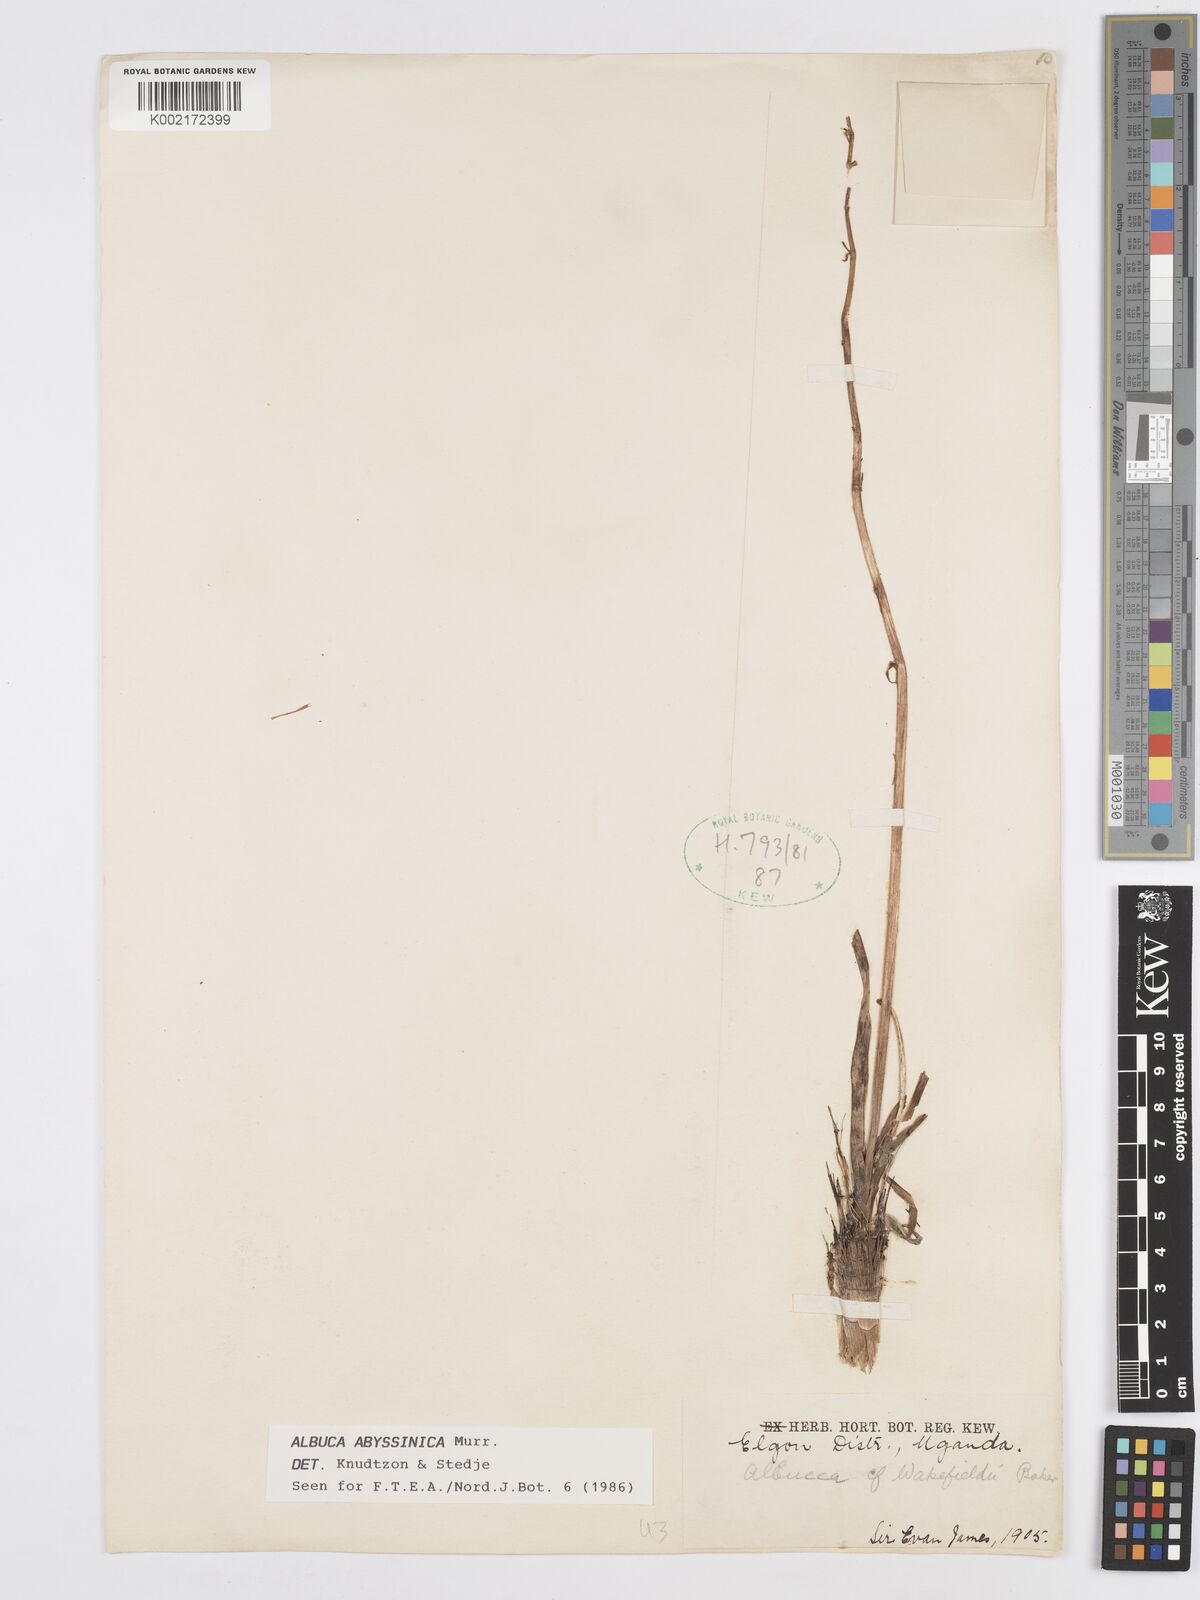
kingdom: Plantae
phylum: Tracheophyta
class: Liliopsida
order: Asparagales
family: Asparagaceae
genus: Albuca
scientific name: Albuca abyssinica
